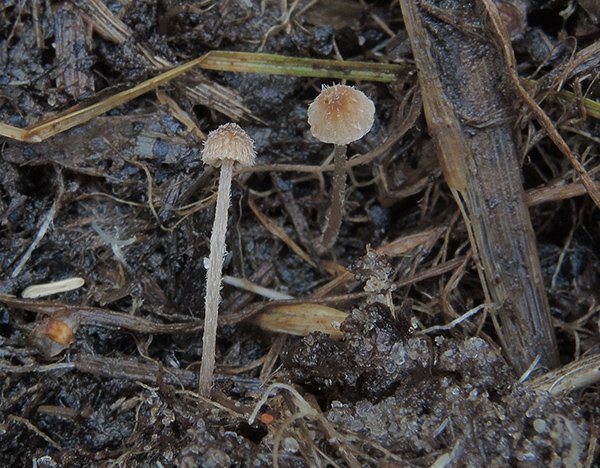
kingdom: Fungi
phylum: Basidiomycota
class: Agaricomycetes
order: Agaricales
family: Psathyrellaceae
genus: Psathyrella
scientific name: Psathyrella
